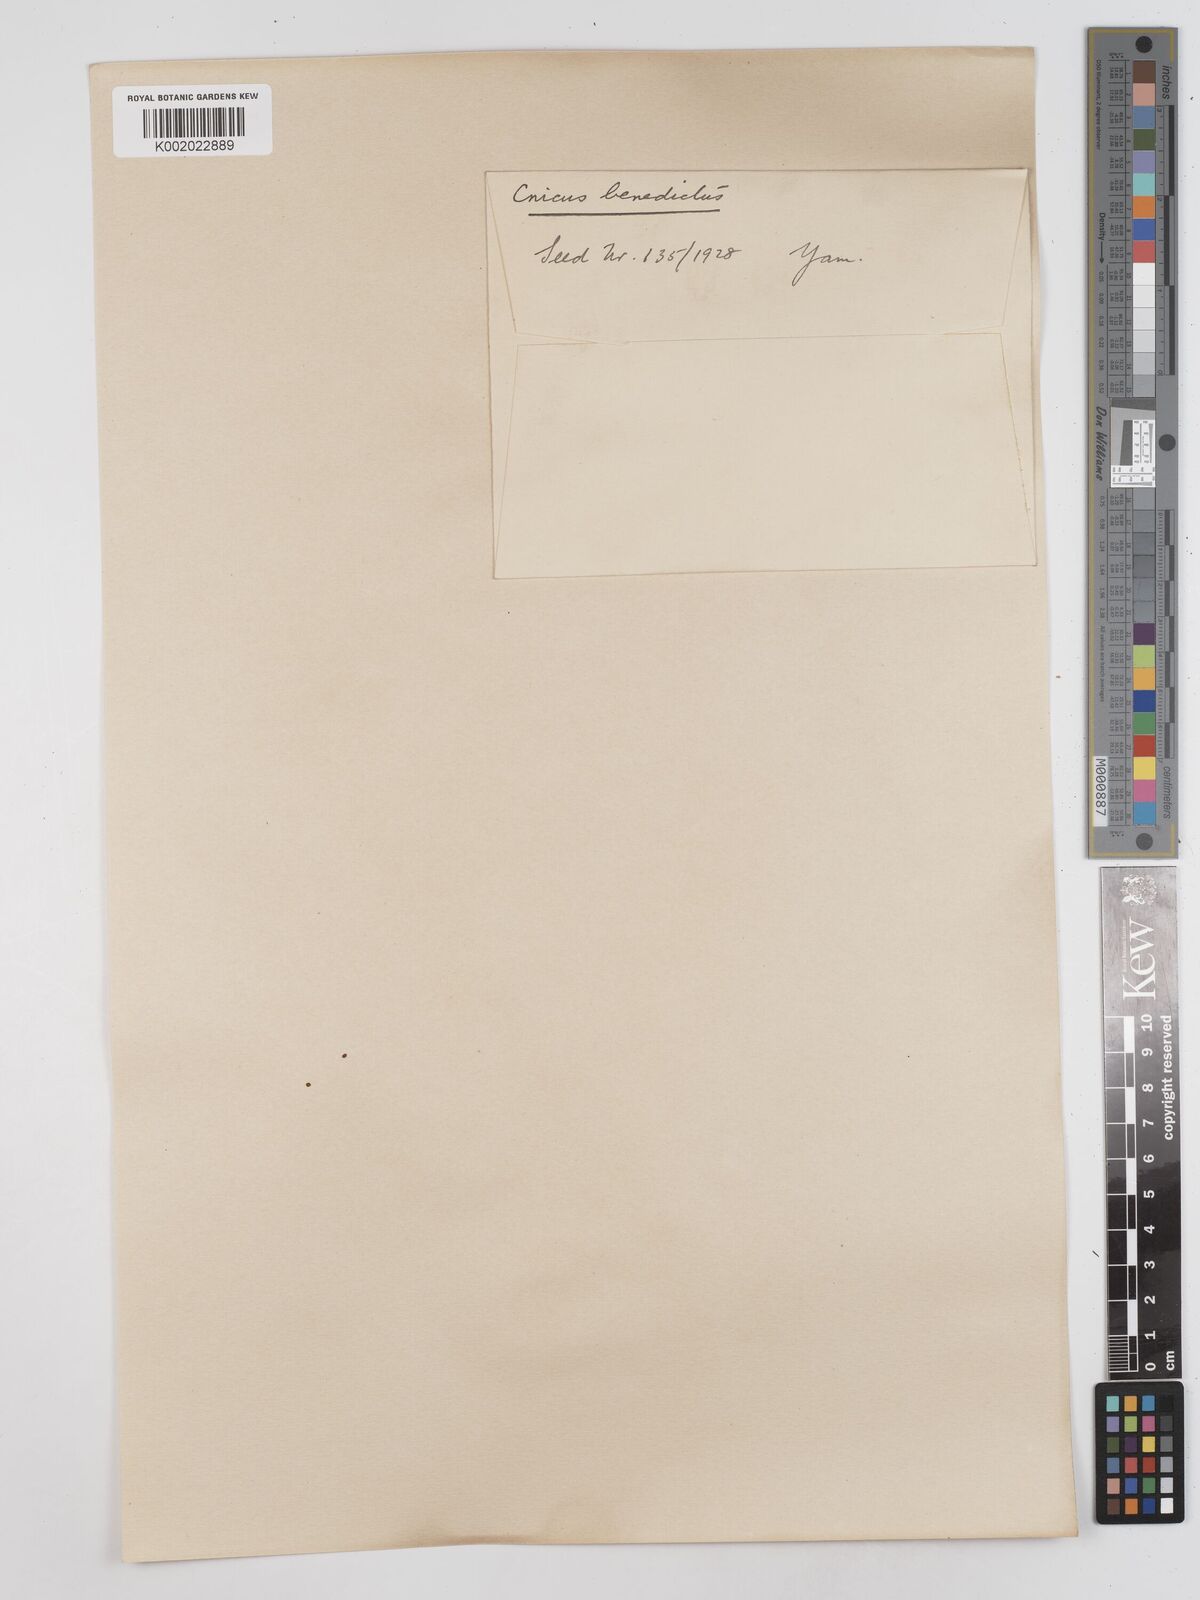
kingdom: Plantae
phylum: Tracheophyta
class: Magnoliopsida
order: Asterales
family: Asteraceae
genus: Centaurea
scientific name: Centaurea benedicta
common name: Blessed thistle
